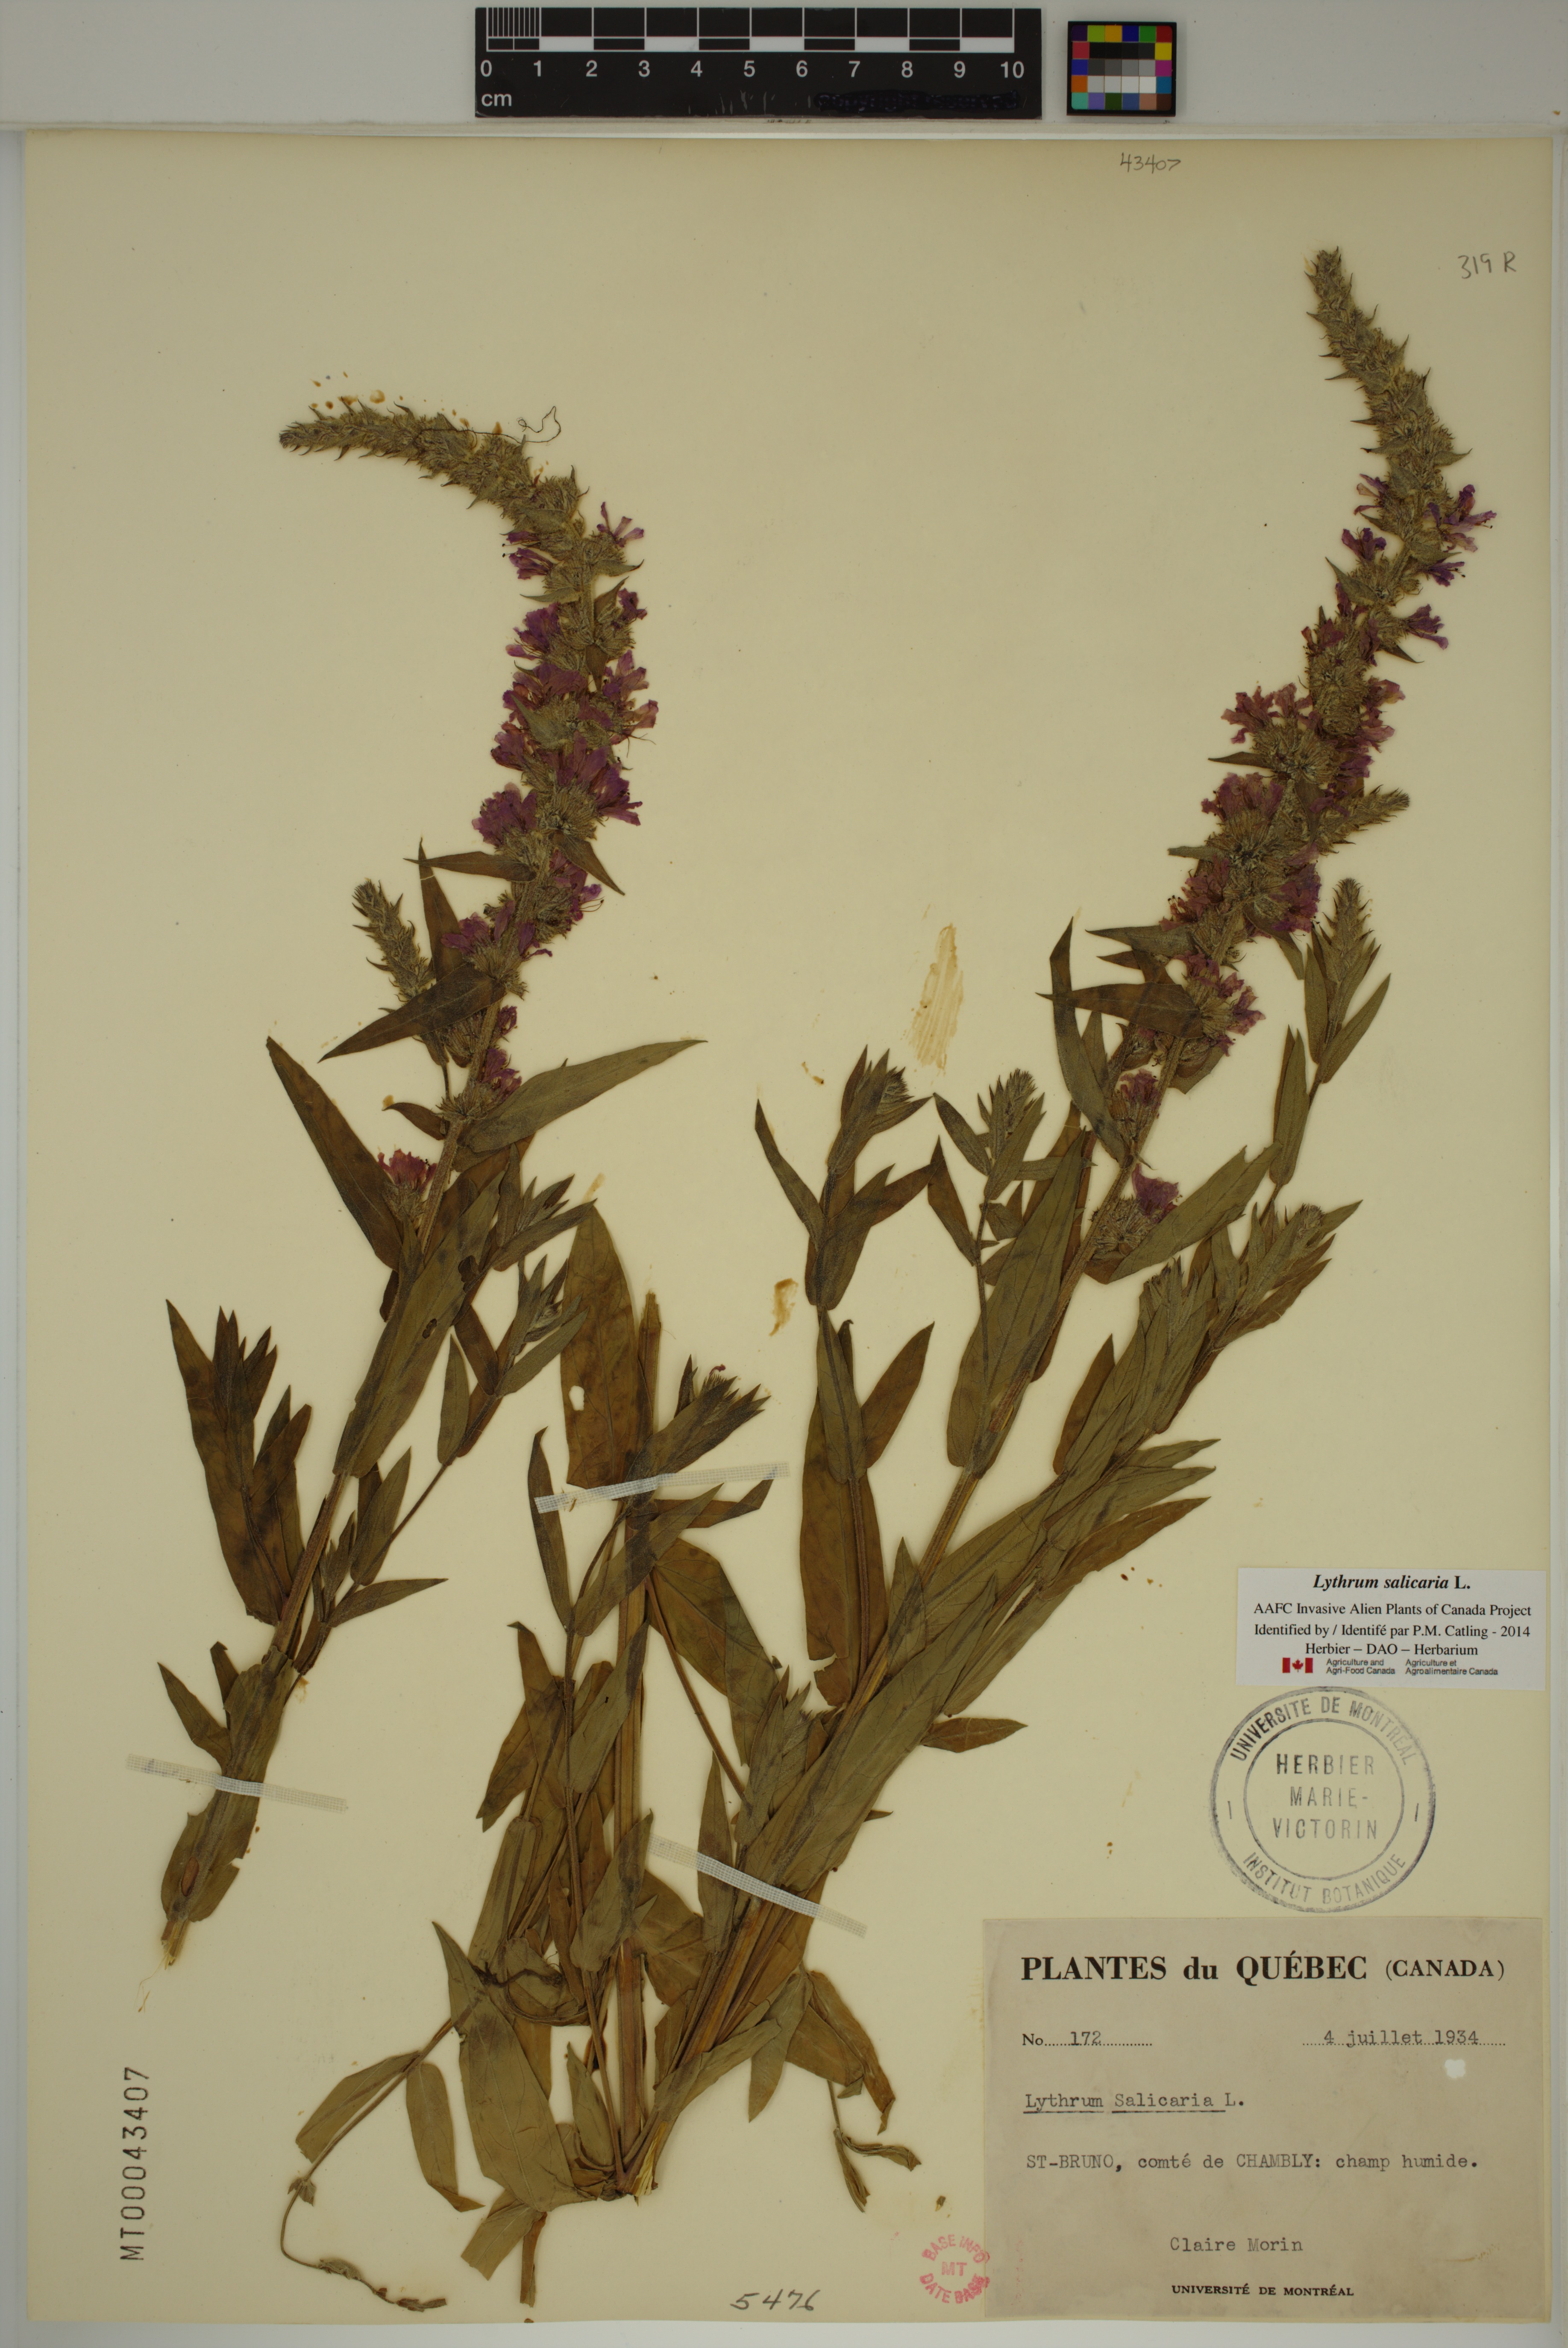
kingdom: Plantae
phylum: Tracheophyta
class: Magnoliopsida
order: Myrtales
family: Lythraceae
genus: Lythrum
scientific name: Lythrum salicaria
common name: Purple loosestrife
